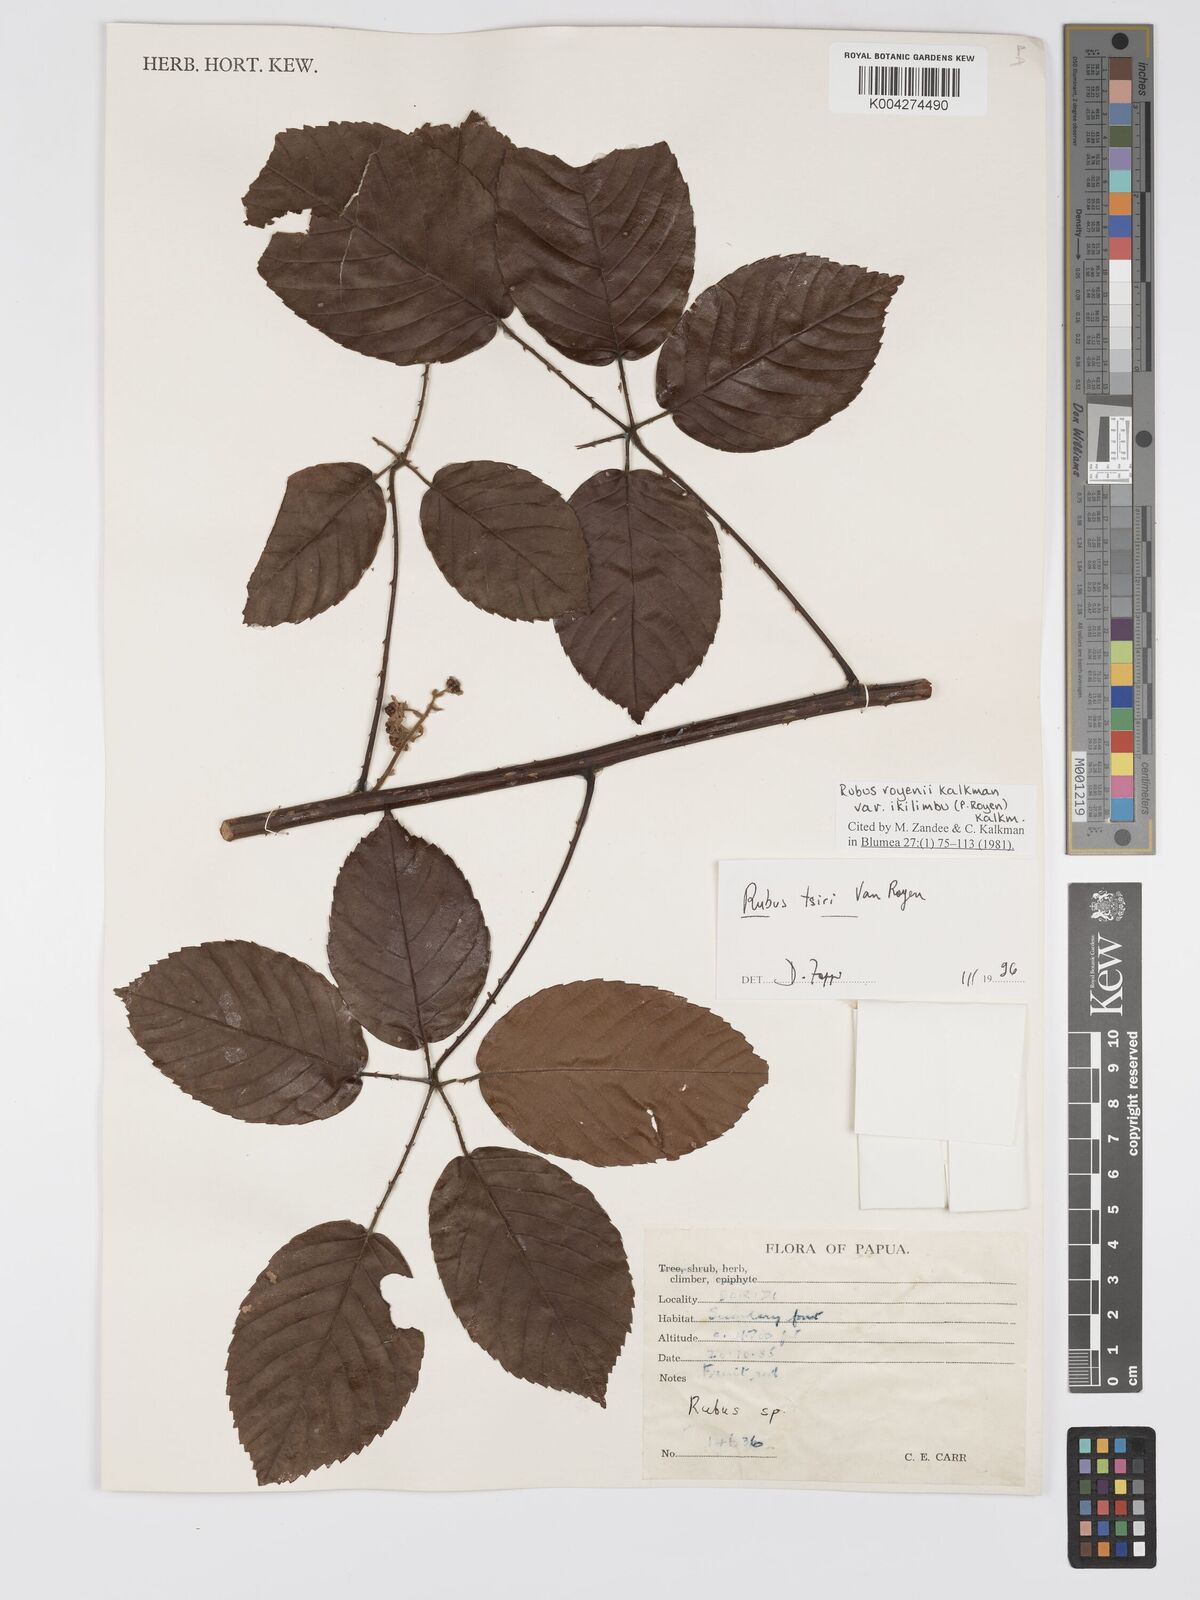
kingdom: Plantae
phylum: Tracheophyta
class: Magnoliopsida
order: Rosales
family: Rosaceae
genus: Rubus
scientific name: Rubus royenii
